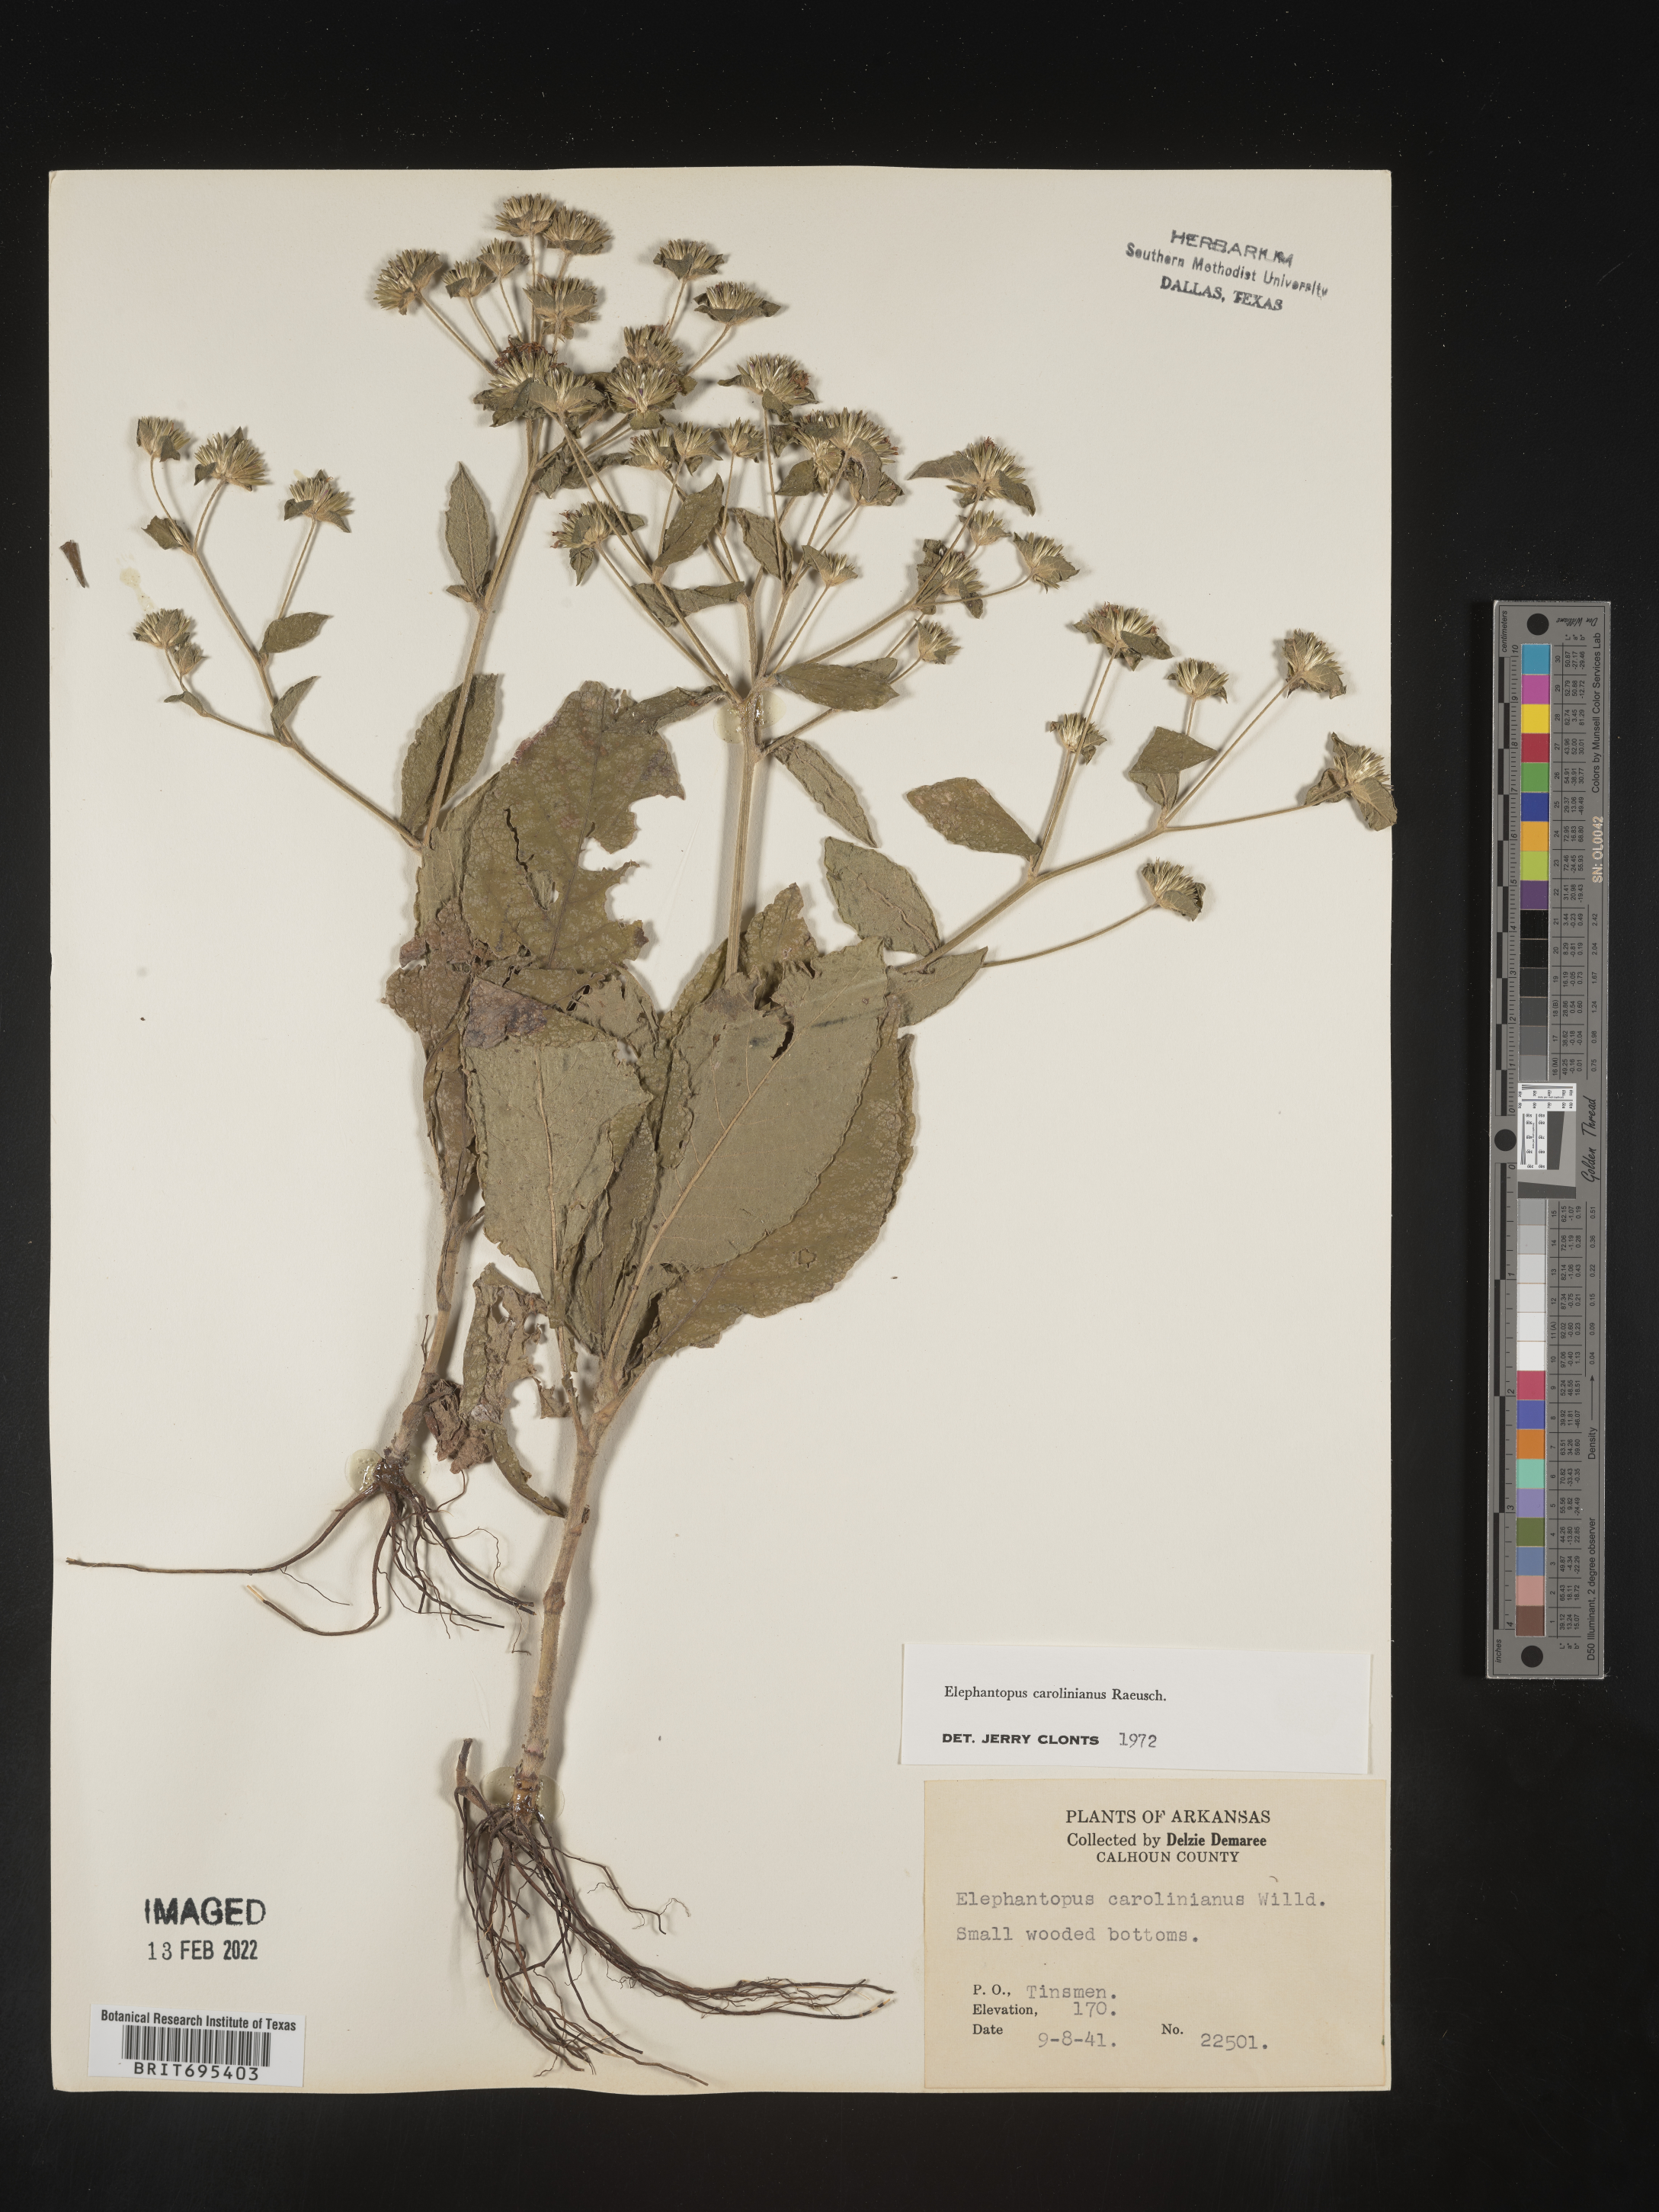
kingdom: Plantae
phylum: Tracheophyta
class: Magnoliopsida
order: Asterales
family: Asteraceae
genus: Elephantopus
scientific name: Elephantopus carolinianus
